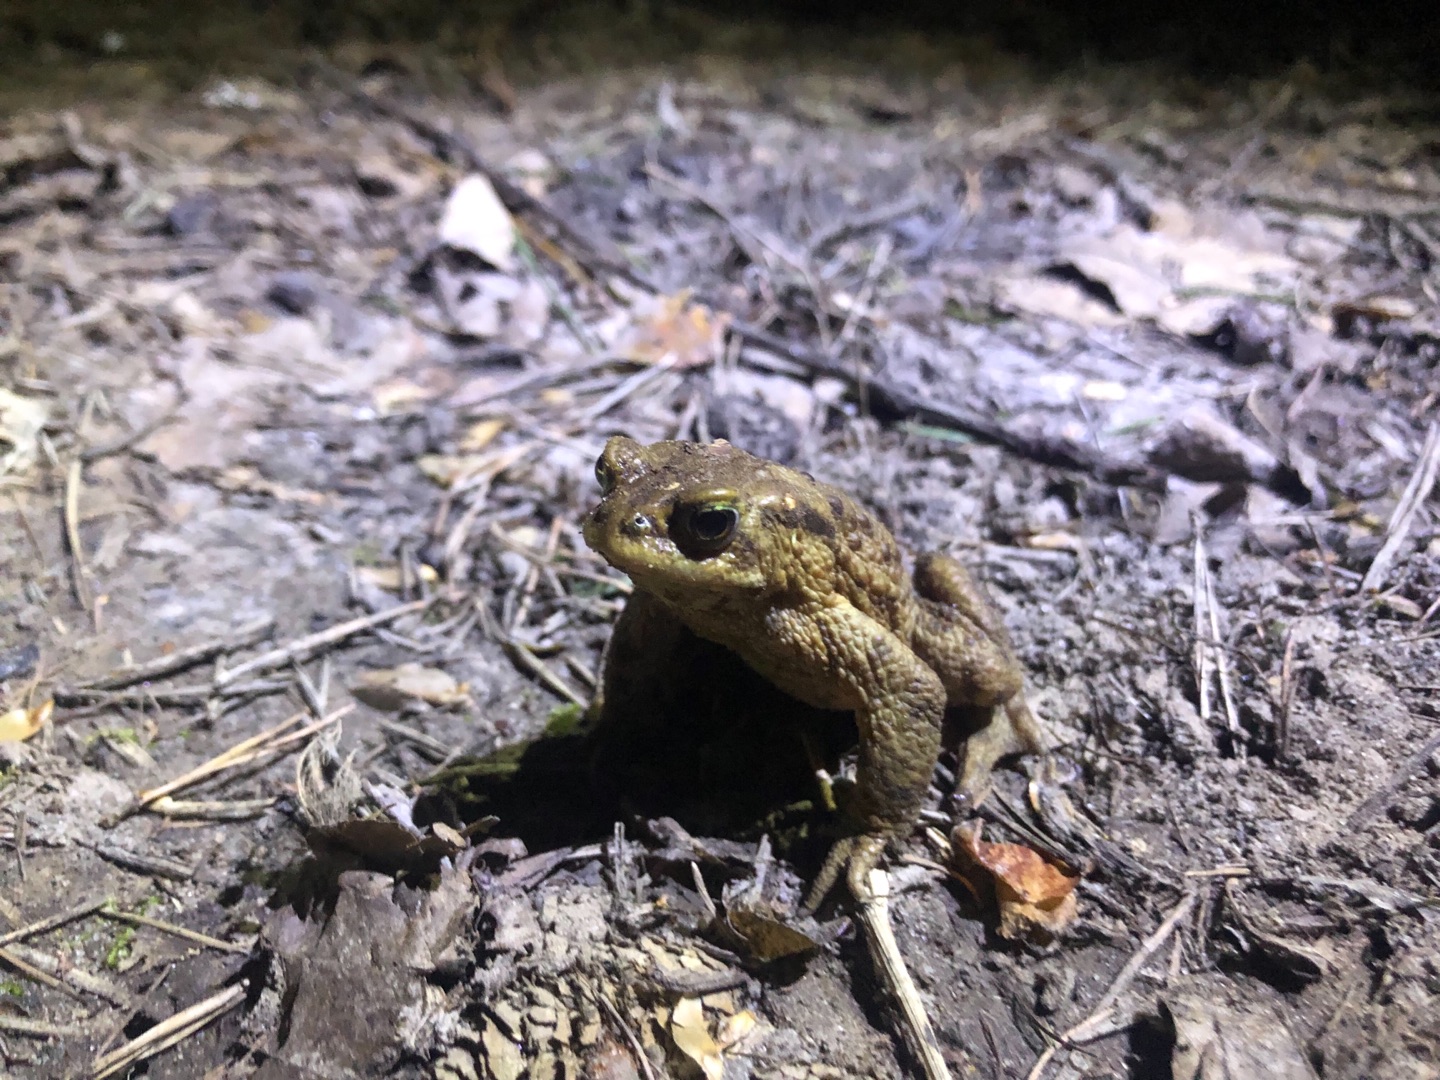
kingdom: Animalia
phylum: Chordata
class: Amphibia
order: Anura
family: Bufonidae
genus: Bufo
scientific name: Bufo bufo
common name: Skrubtudse
